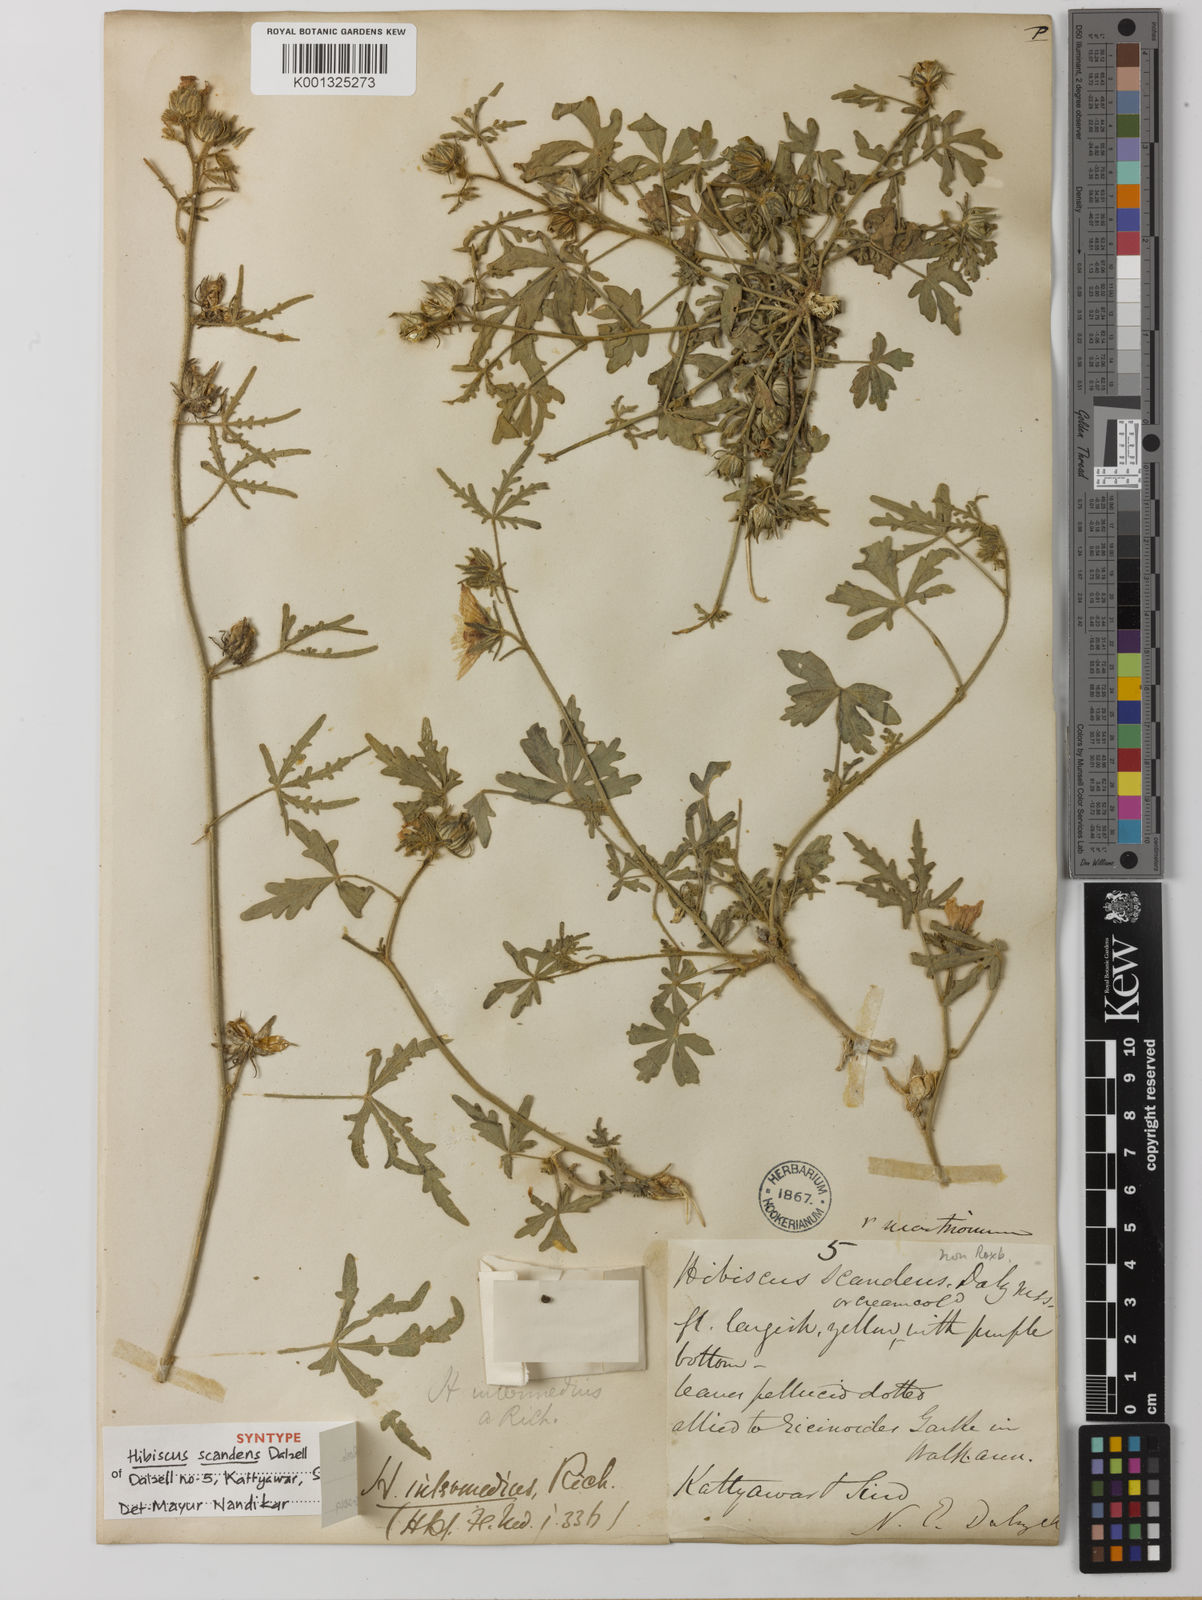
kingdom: Plantae
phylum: Tracheophyta
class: Magnoliopsida
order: Malvales
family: Malvaceae
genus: Hibiscus
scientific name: Hibiscus
